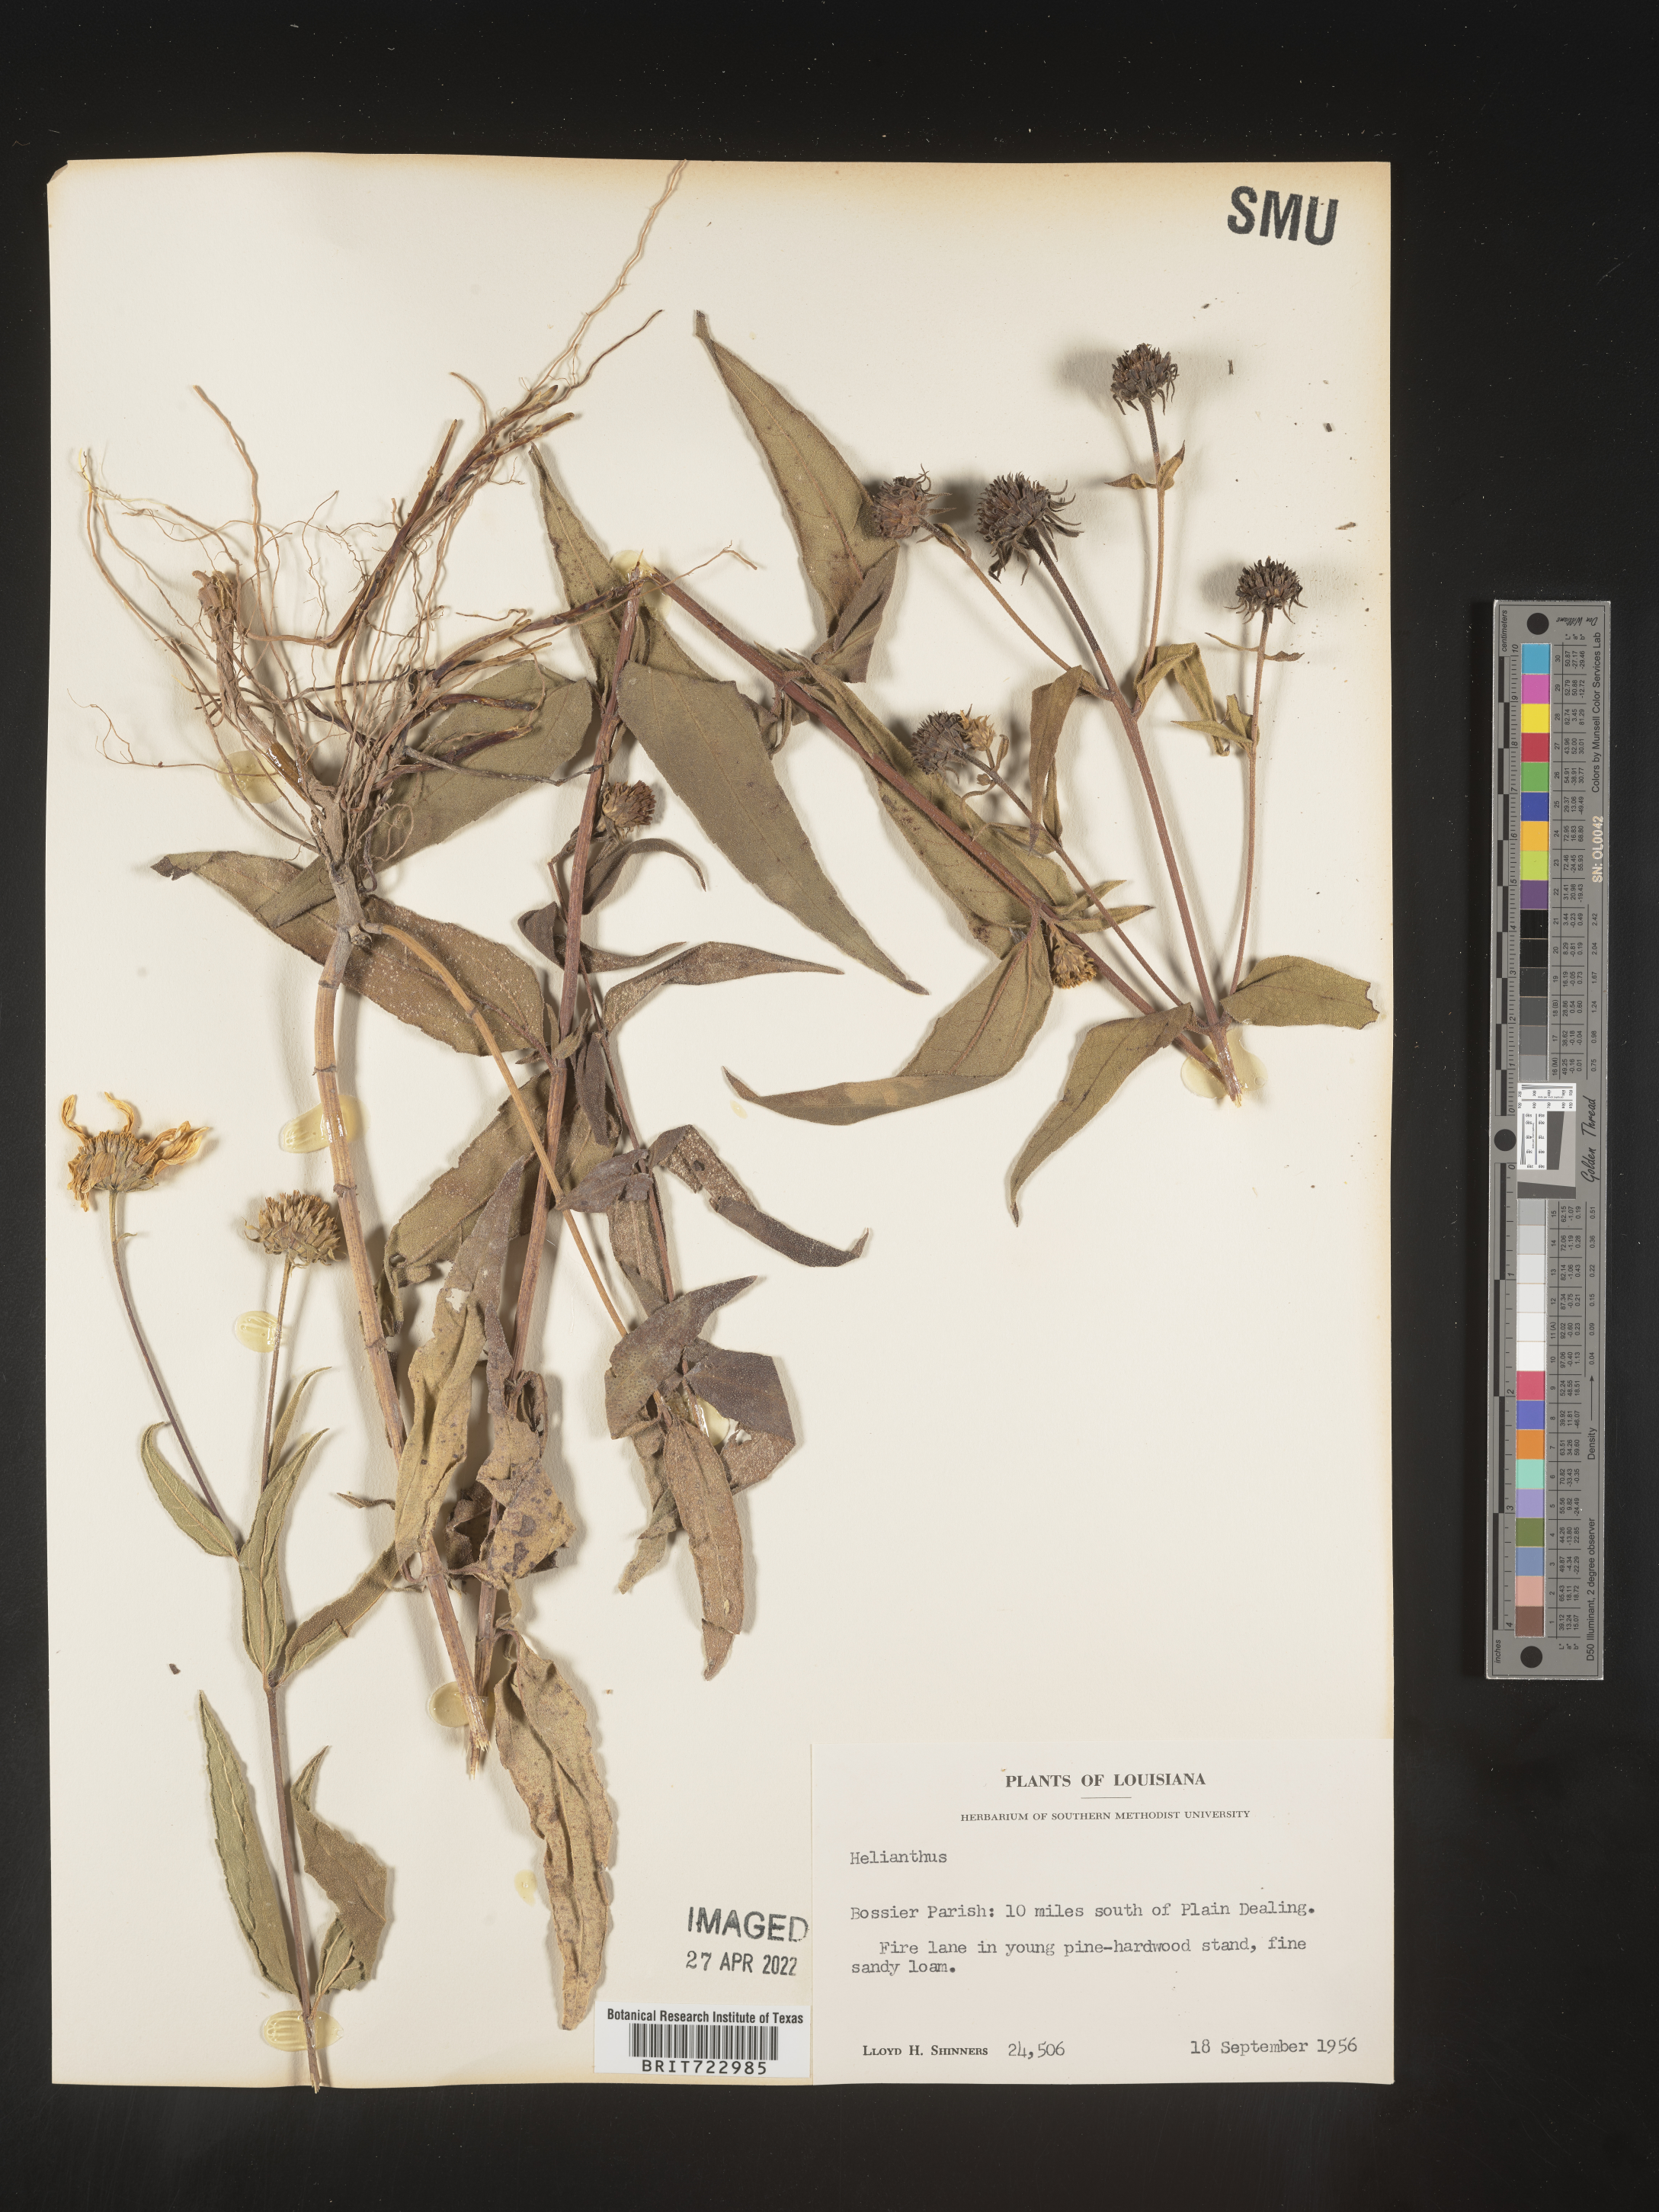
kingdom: Plantae
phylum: Tracheophyta
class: Magnoliopsida
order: Asterales
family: Asteraceae
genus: Helianthus
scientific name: Helianthus
